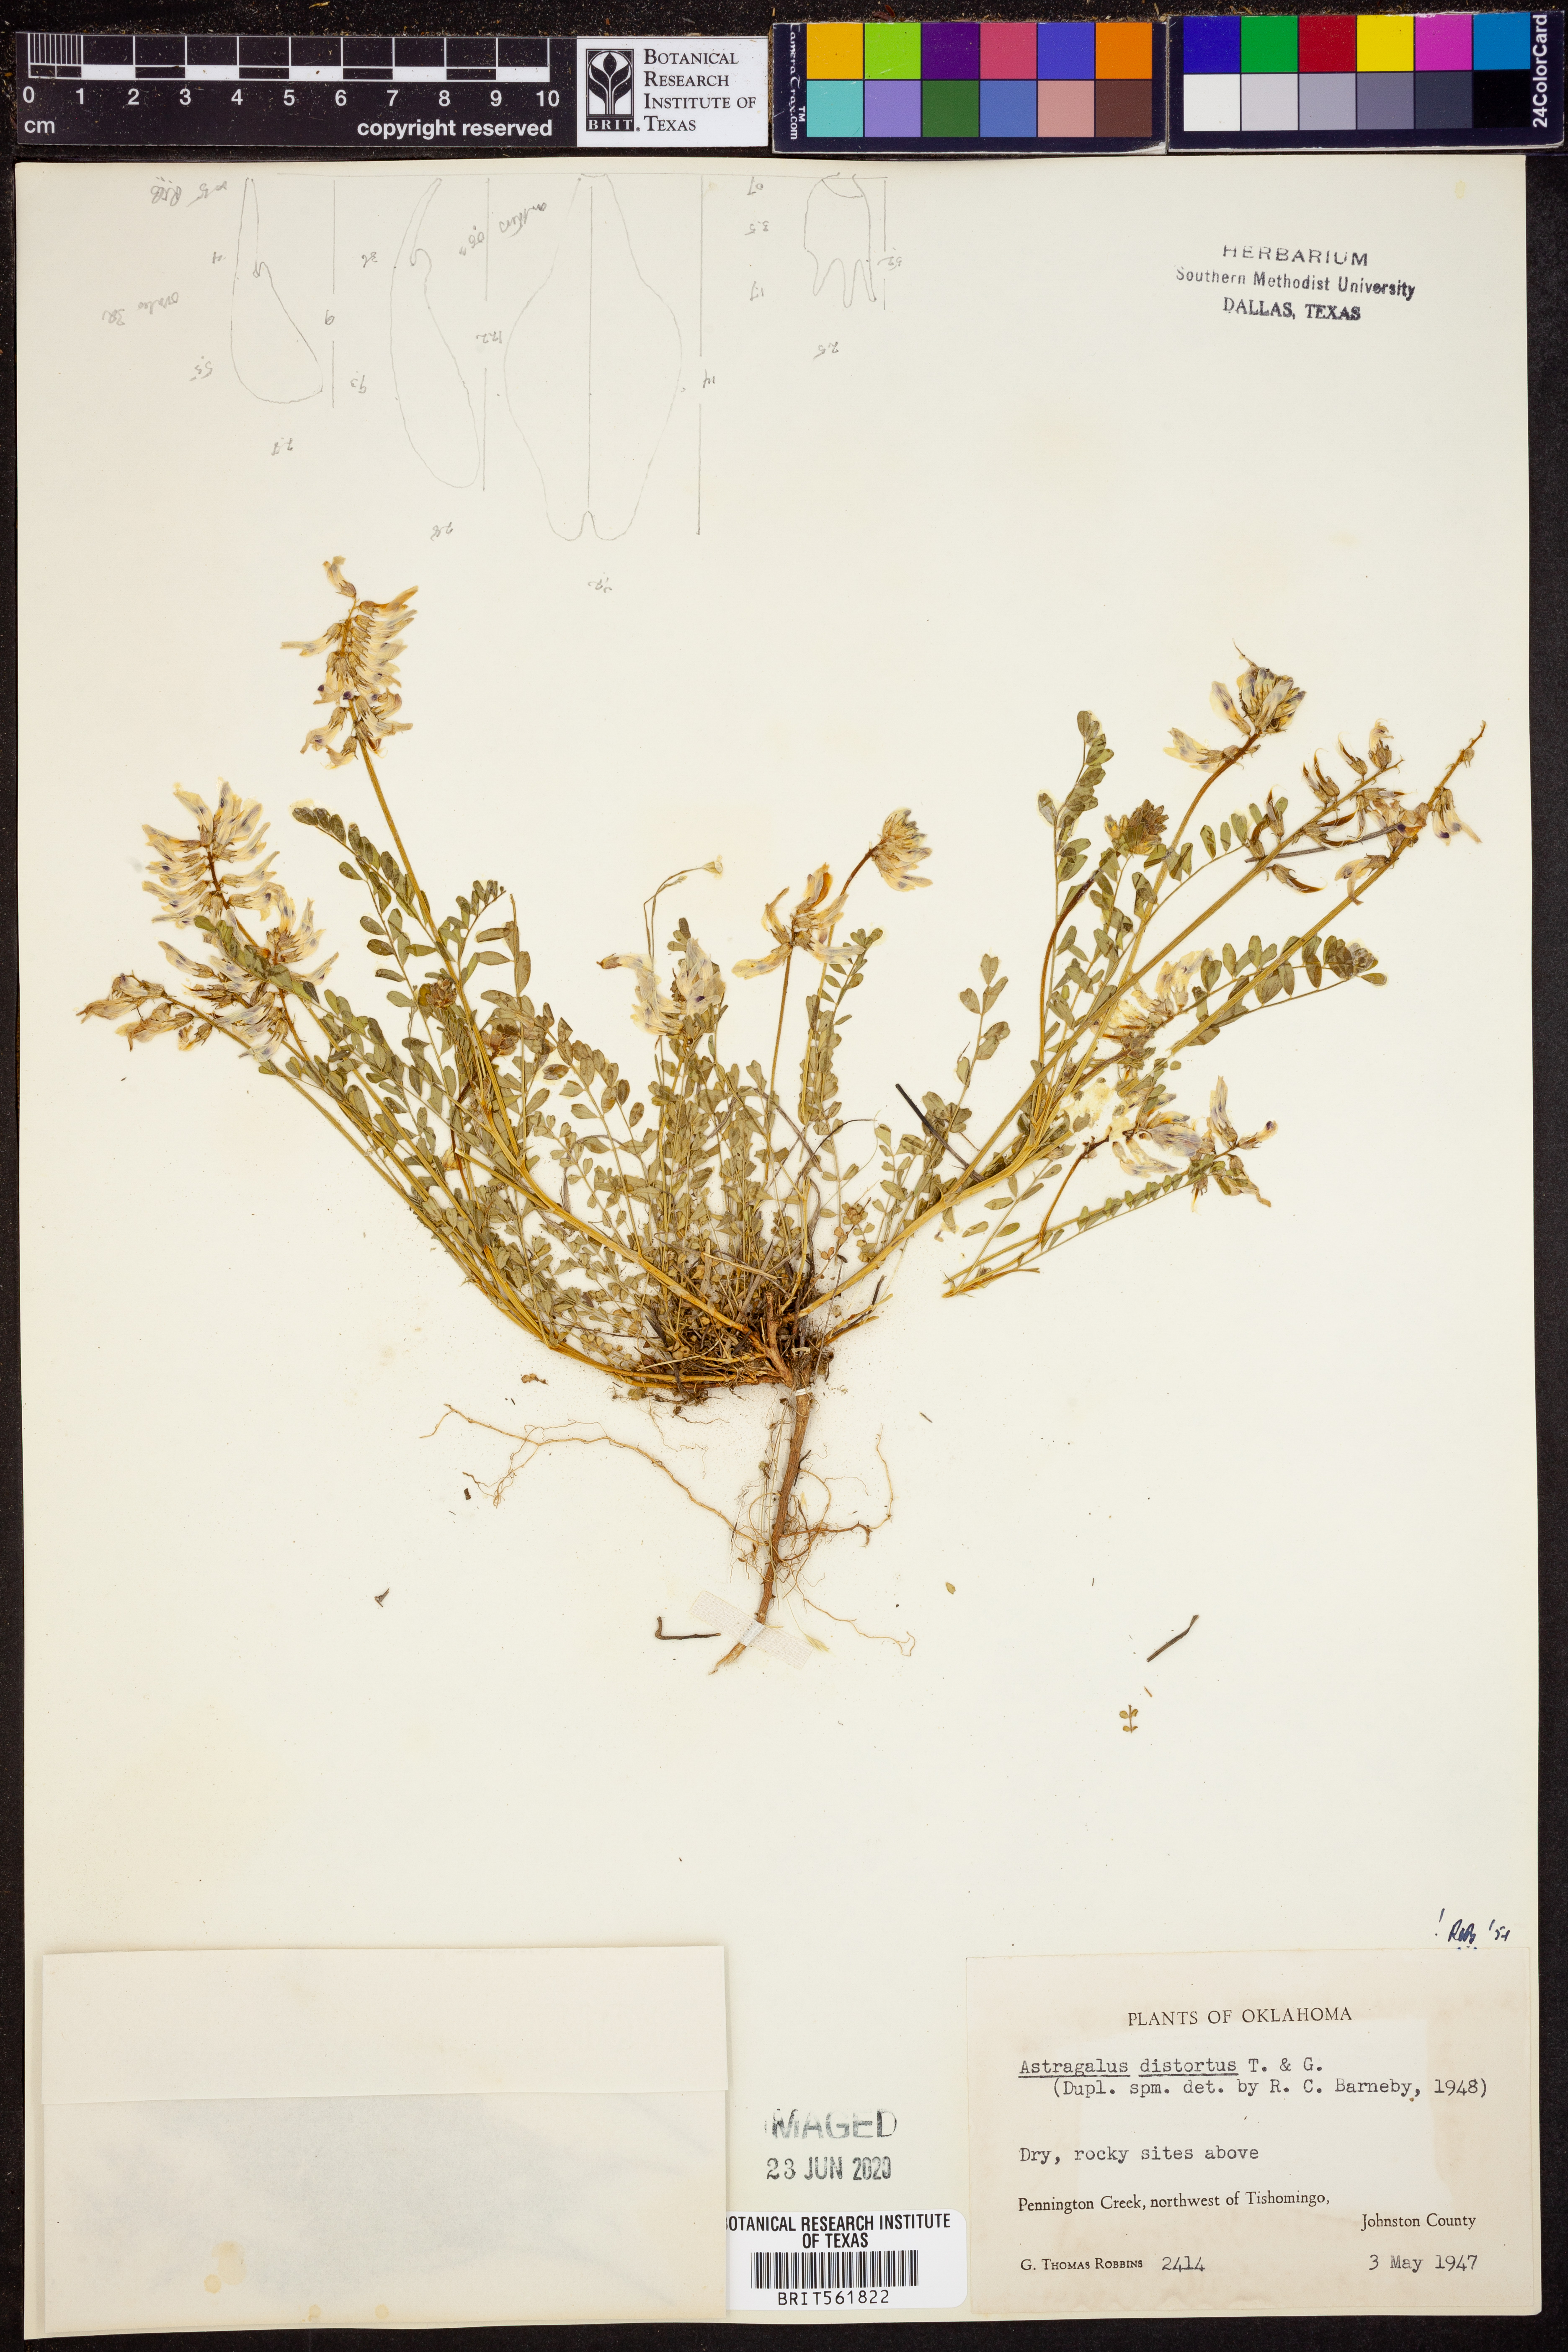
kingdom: Plantae
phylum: Tracheophyta
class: Magnoliopsida
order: Fabales
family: Fabaceae
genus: Astragalus
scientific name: Astragalus distortus
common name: Ozark milk-vetch
